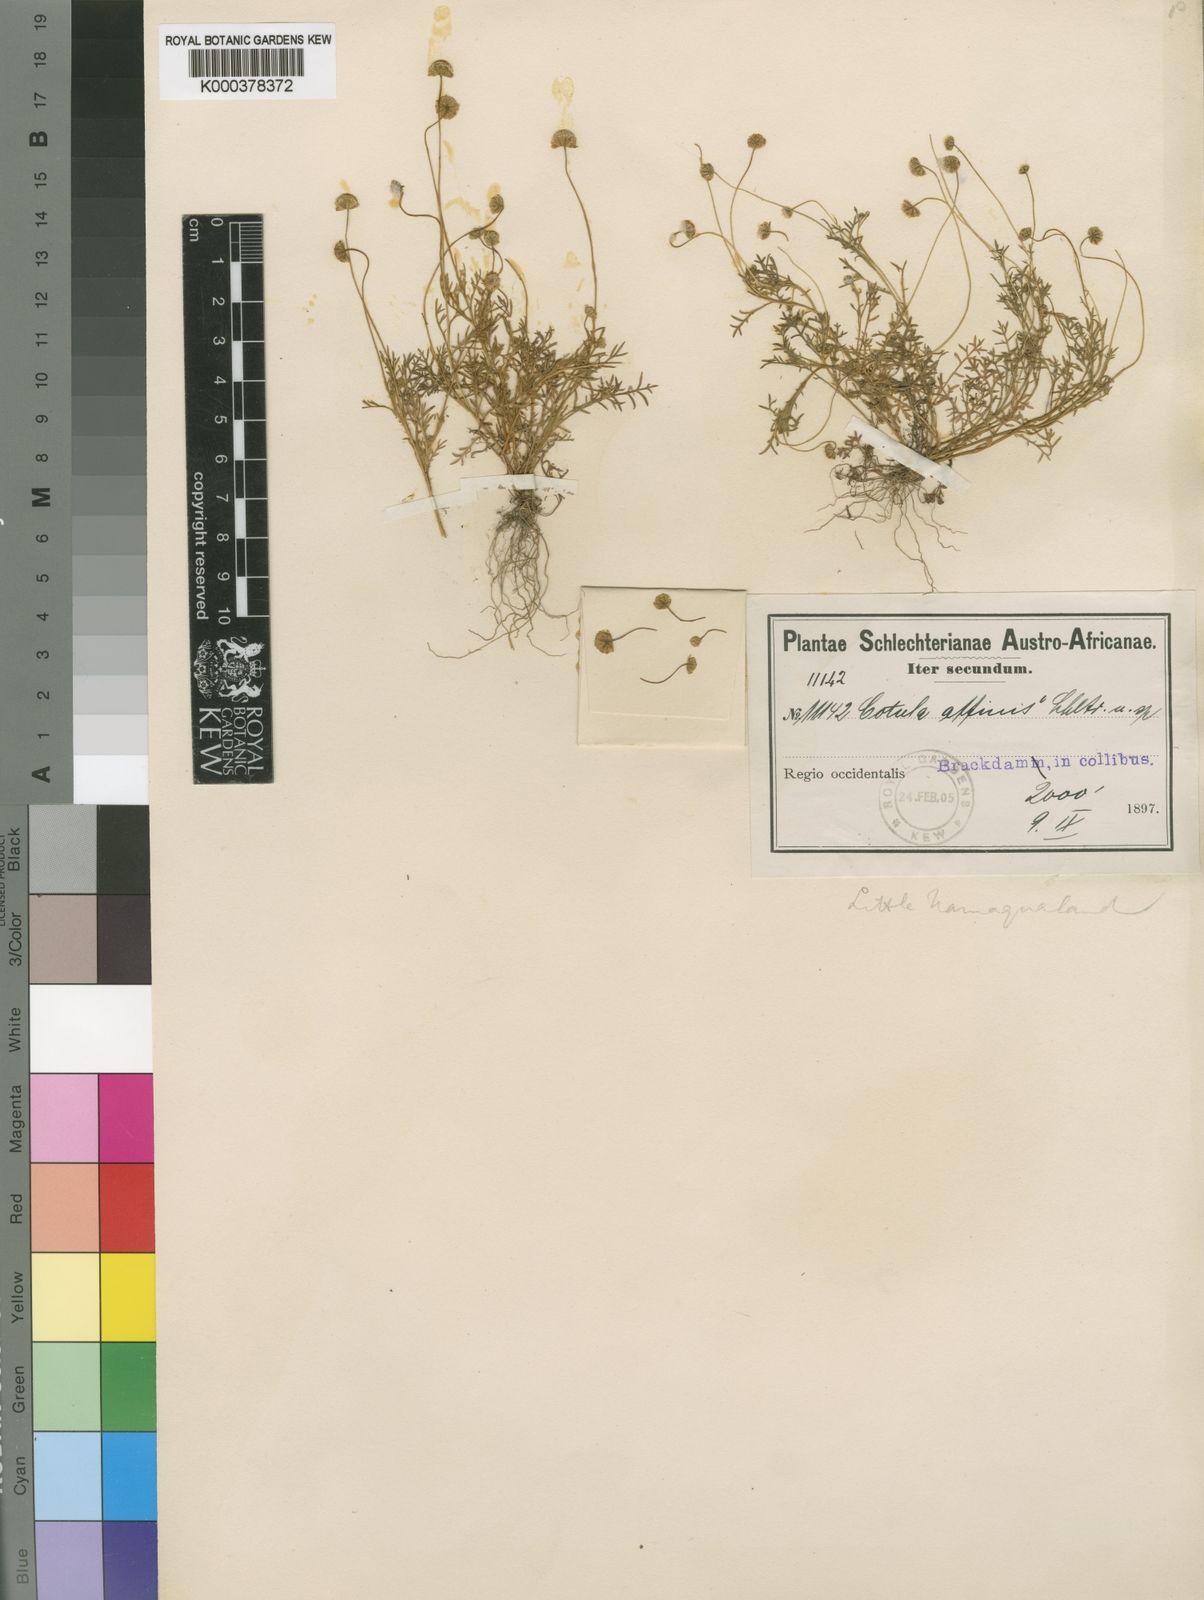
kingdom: Plantae
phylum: Tracheophyta
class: Magnoliopsida
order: Asterales
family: Asteraceae
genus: Cotula
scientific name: Cotula
